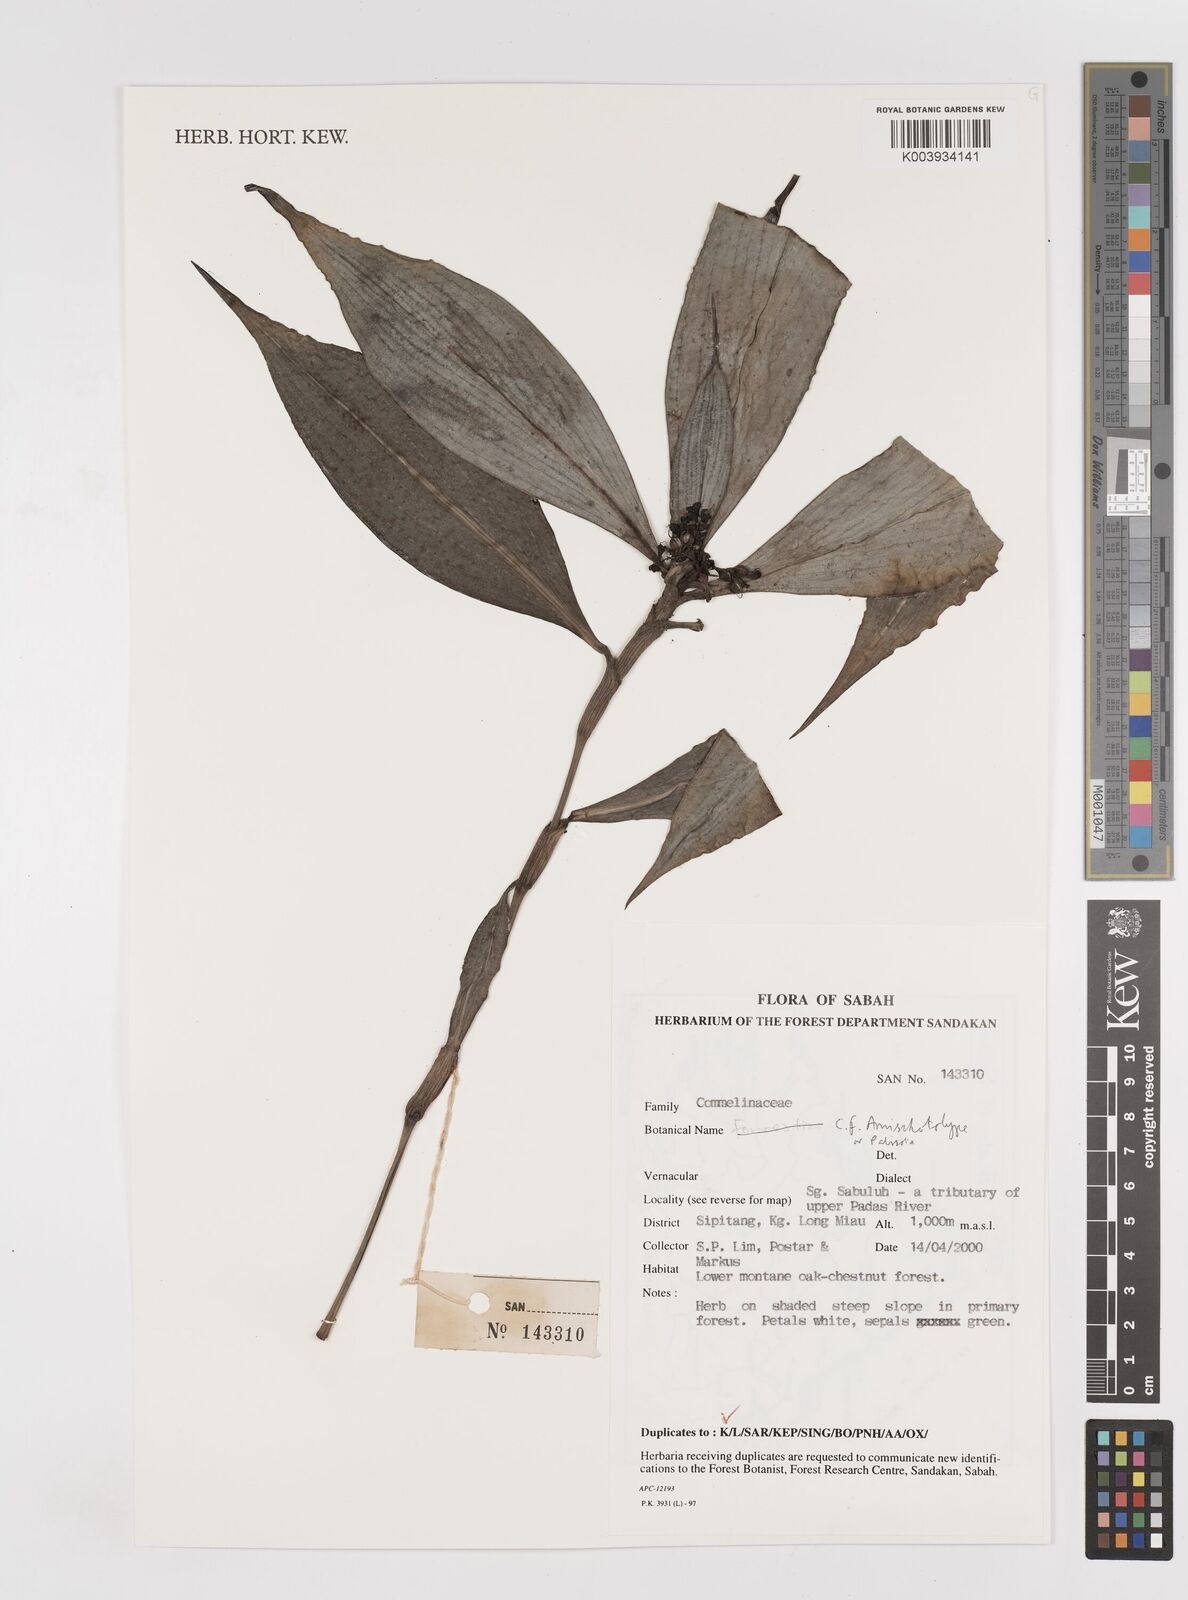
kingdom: Plantae
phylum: Tracheophyta
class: Liliopsida
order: Commelinales
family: Commelinaceae
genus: Amischotolype
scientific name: Amischotolype
